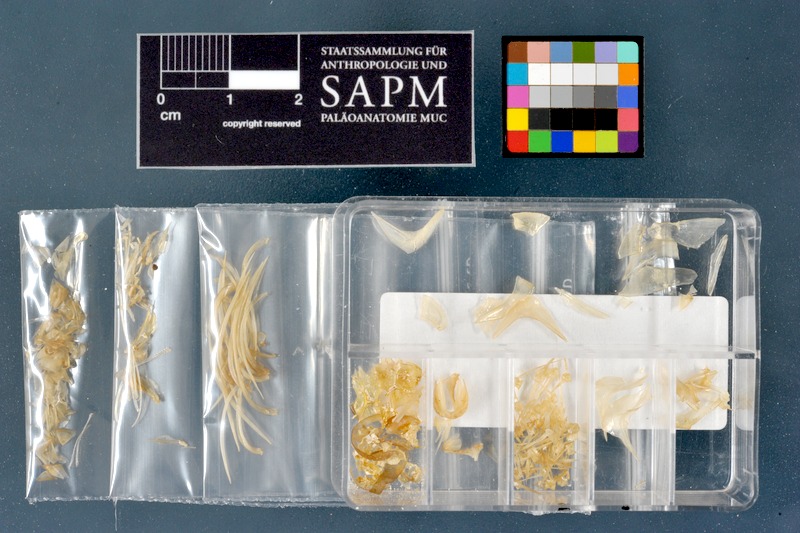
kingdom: Animalia
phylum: Chordata
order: Characiformes
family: Alestidae
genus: Phenacogrammus
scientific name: Phenacogrammus interruptus
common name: Congo tetra
